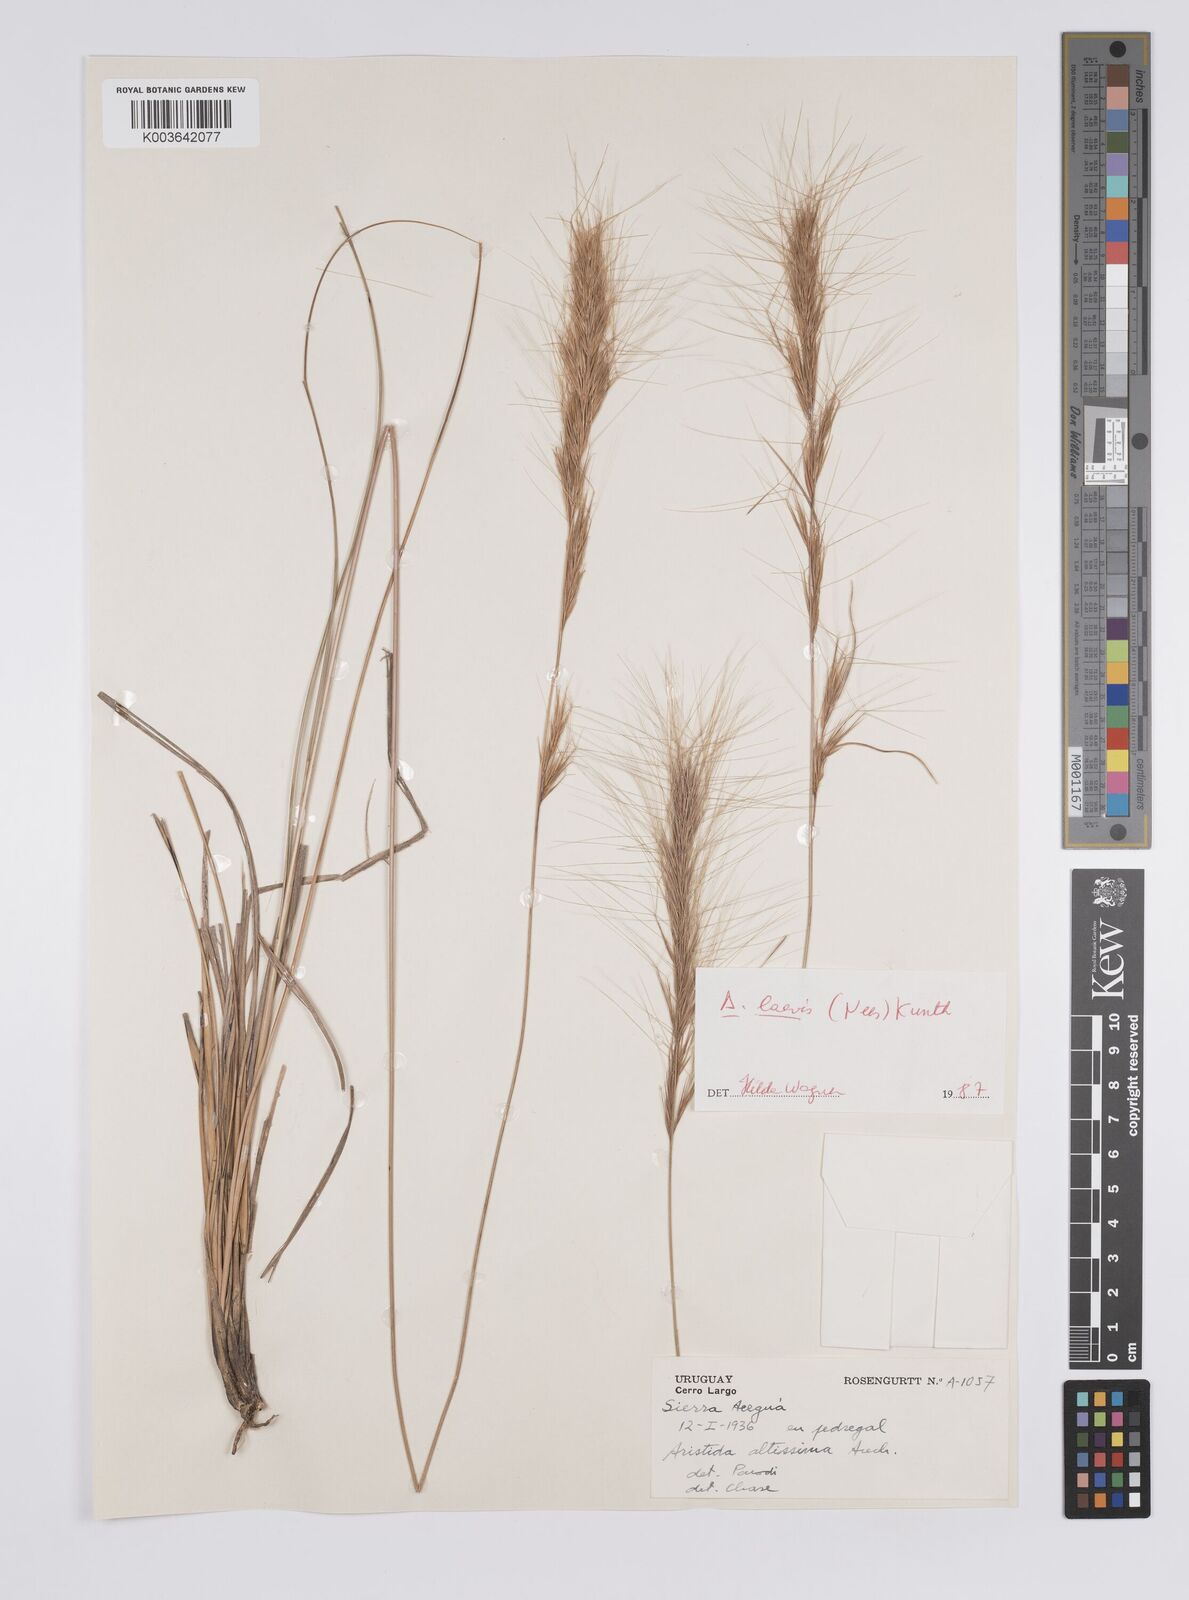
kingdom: Plantae
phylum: Tracheophyta
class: Liliopsida
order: Poales
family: Poaceae
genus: Aristida
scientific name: Aristida laevis
